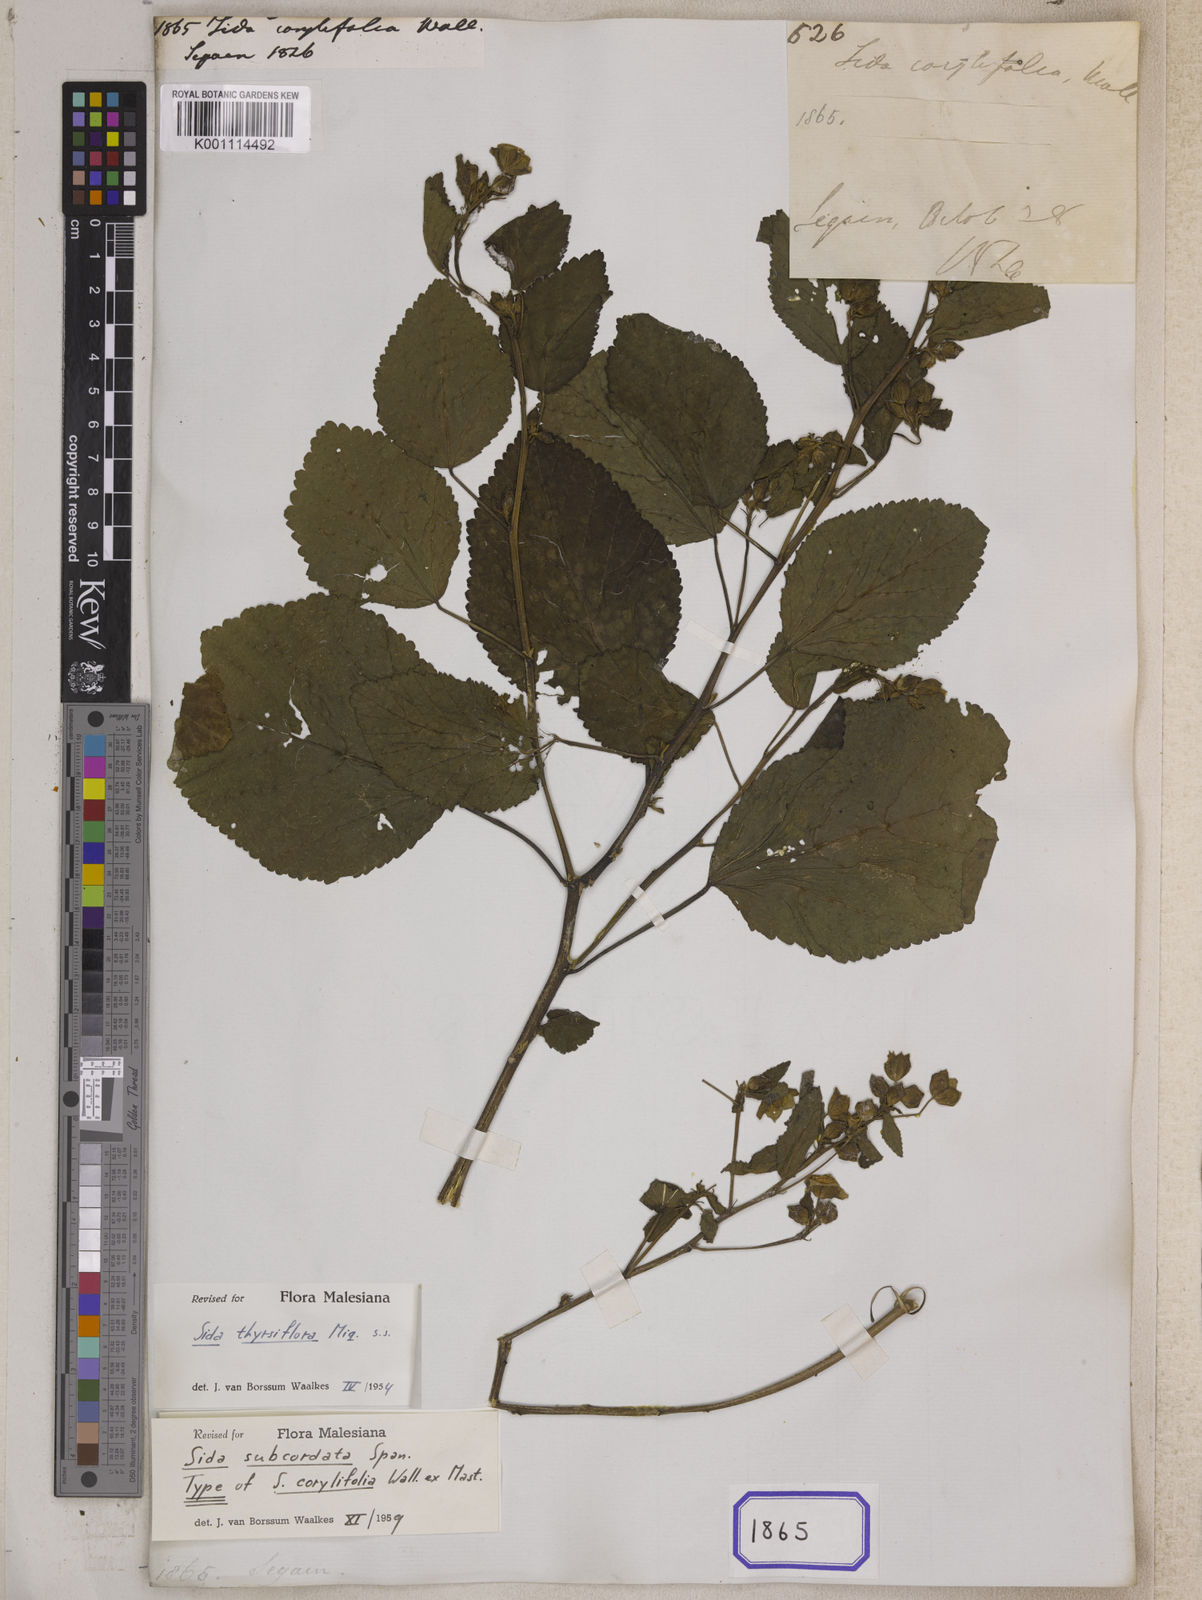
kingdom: Plantae
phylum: Tracheophyta
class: Magnoliopsida
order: Malvales
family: Malvaceae
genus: Sida
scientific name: Sida
